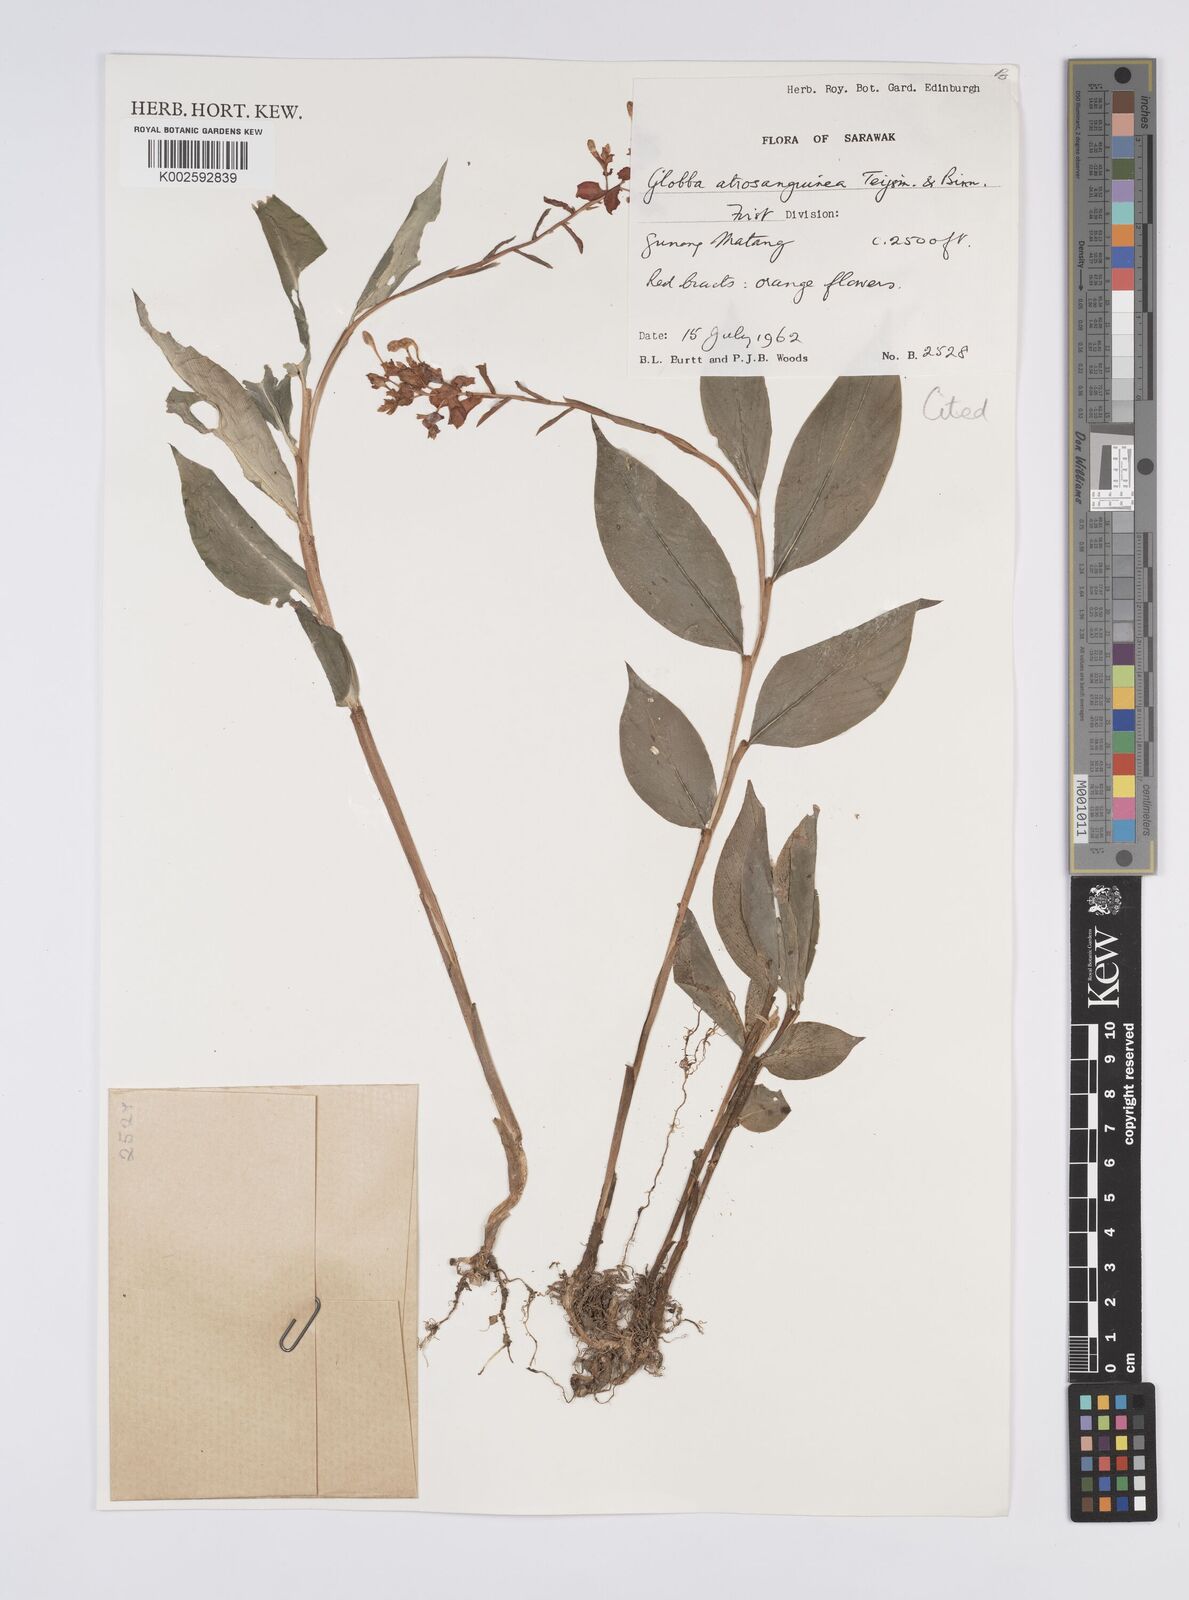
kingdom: Plantae
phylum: Tracheophyta
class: Liliopsida
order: Zingiberales
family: Zingiberaceae
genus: Globba
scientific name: Globba atrosanguinea
